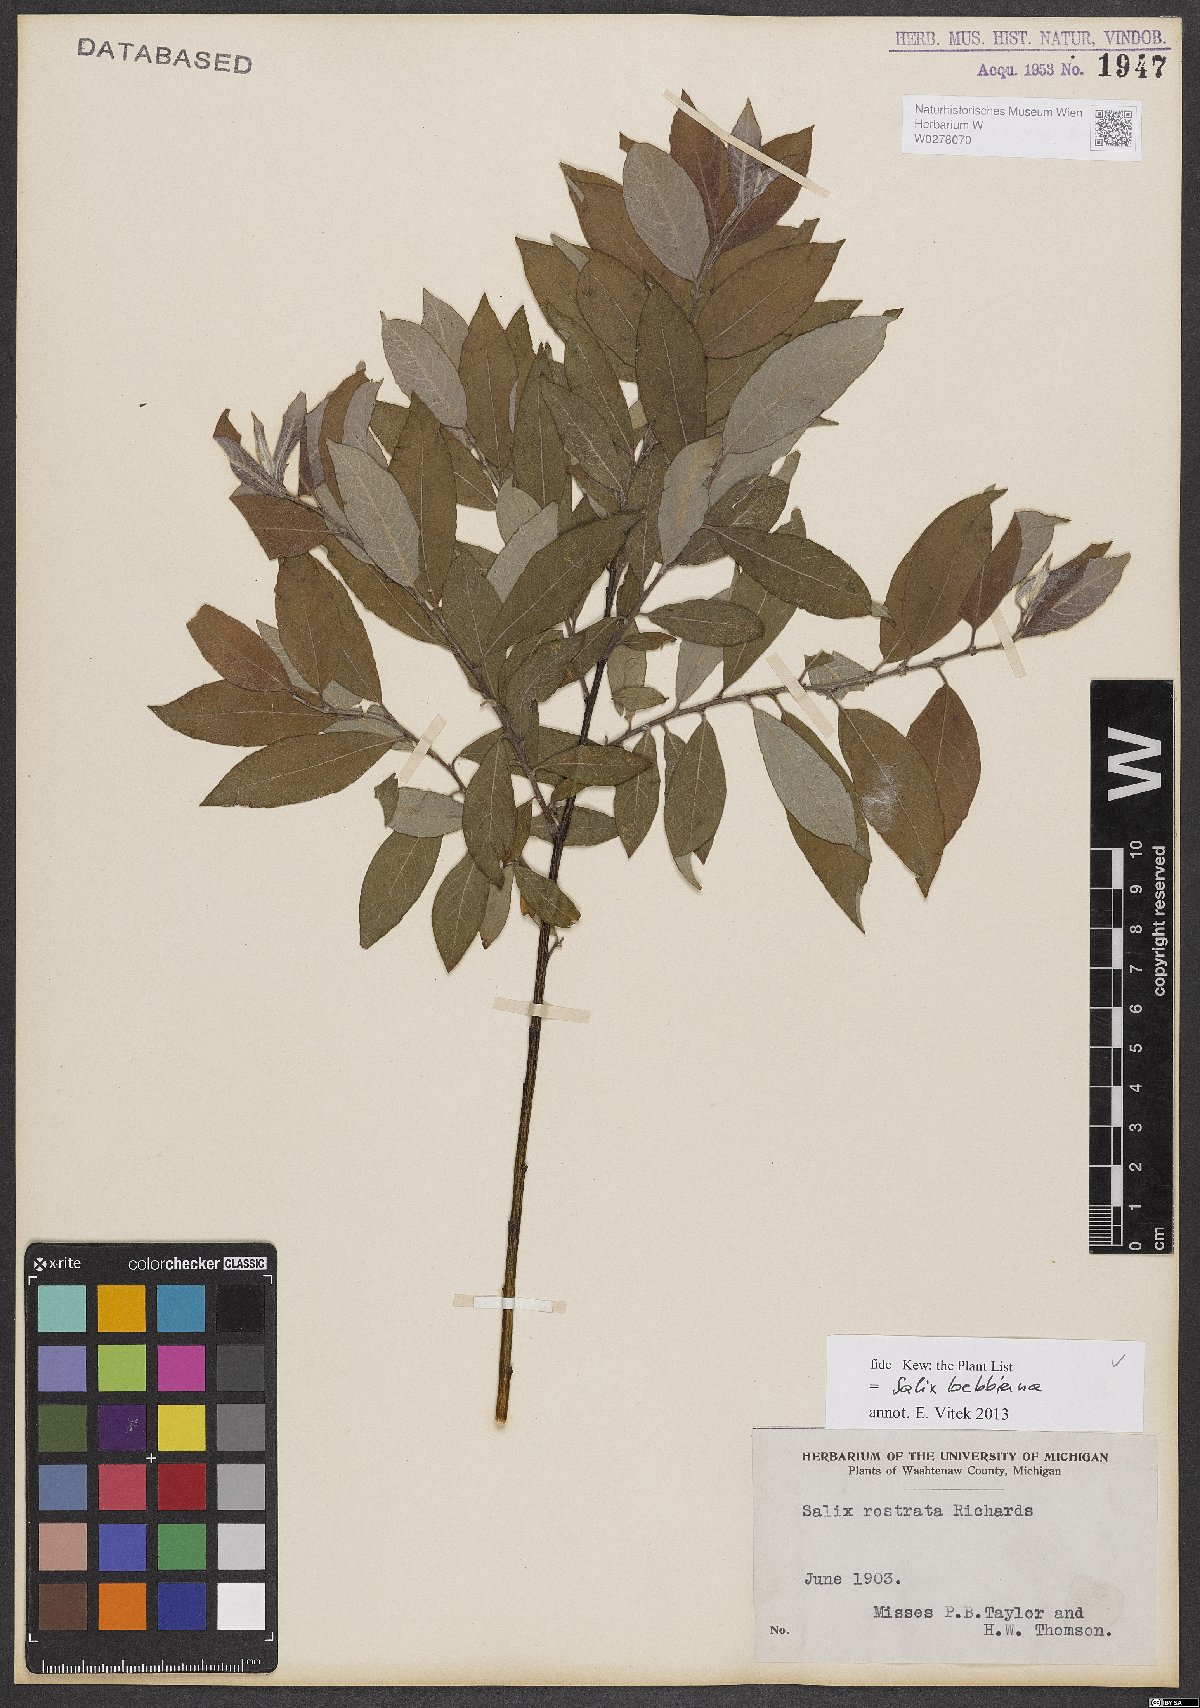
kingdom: Plantae
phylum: Tracheophyta
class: Magnoliopsida
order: Malpighiales
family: Salicaceae
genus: Salix
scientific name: Salix bebbiana
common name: Bebb's willow
